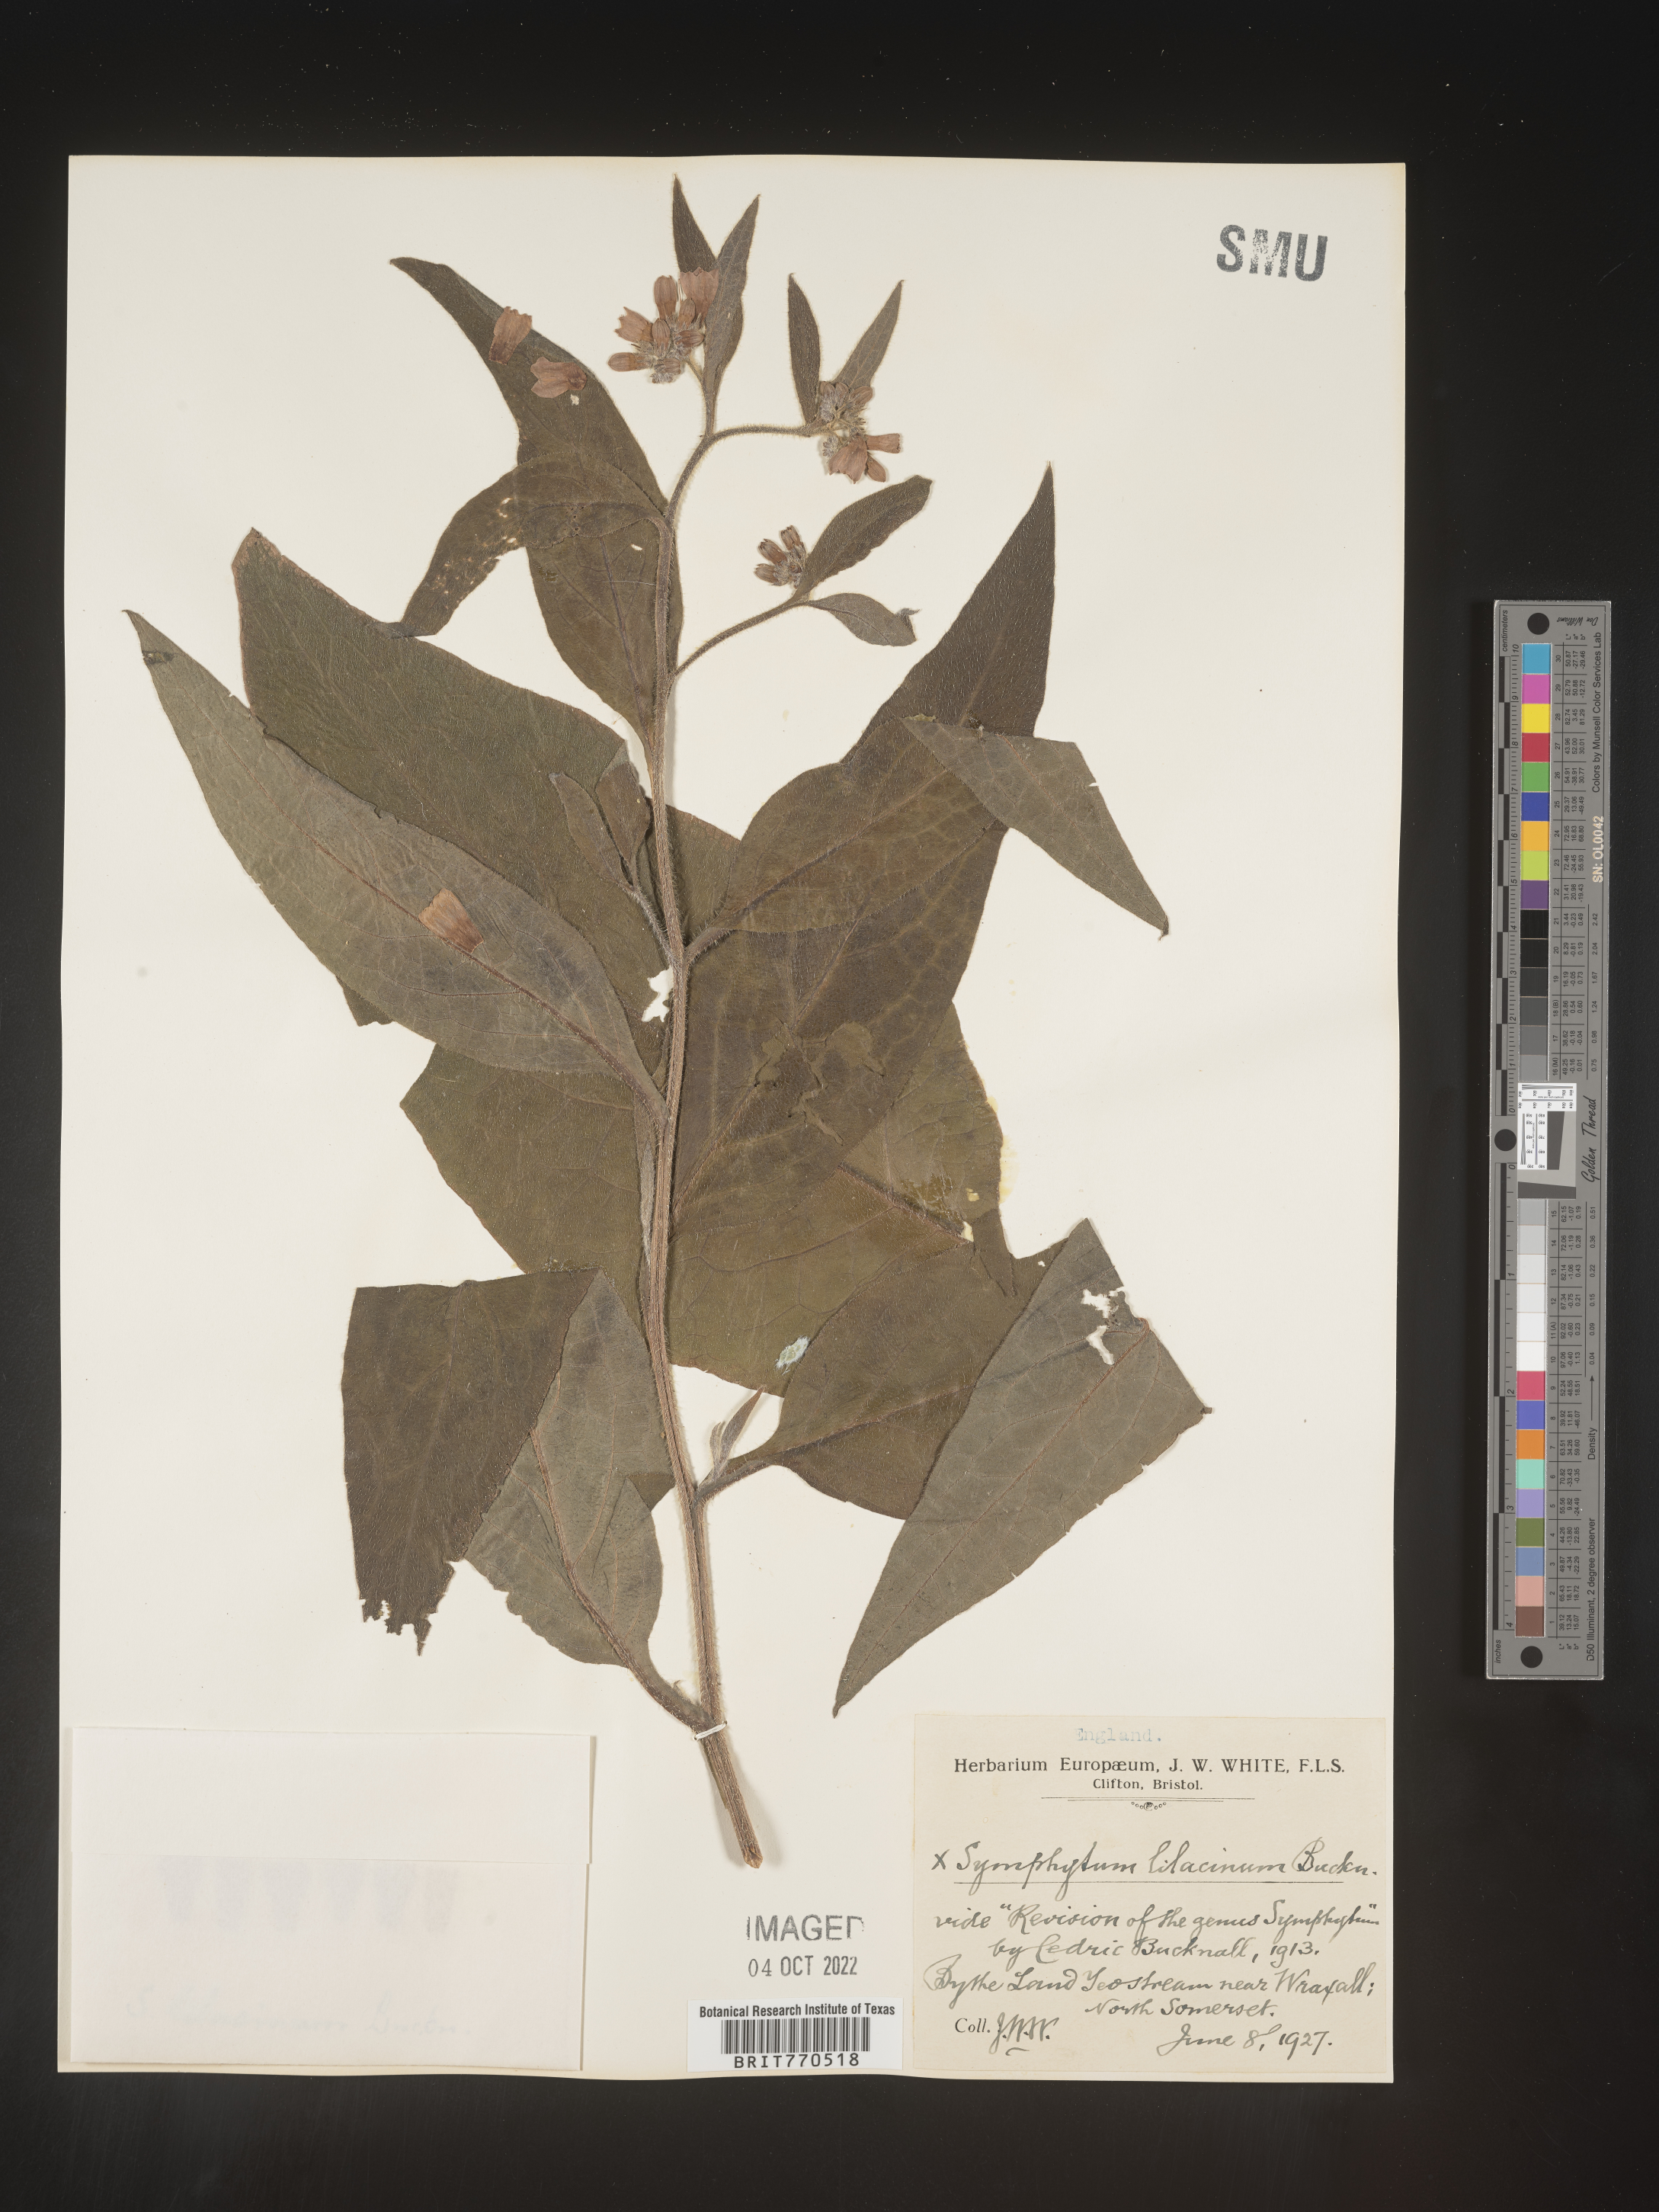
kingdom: Plantae
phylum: Tracheophyta
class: Magnoliopsida
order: Boraginales
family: Boraginaceae
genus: Symphytum
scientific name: Symphytum
